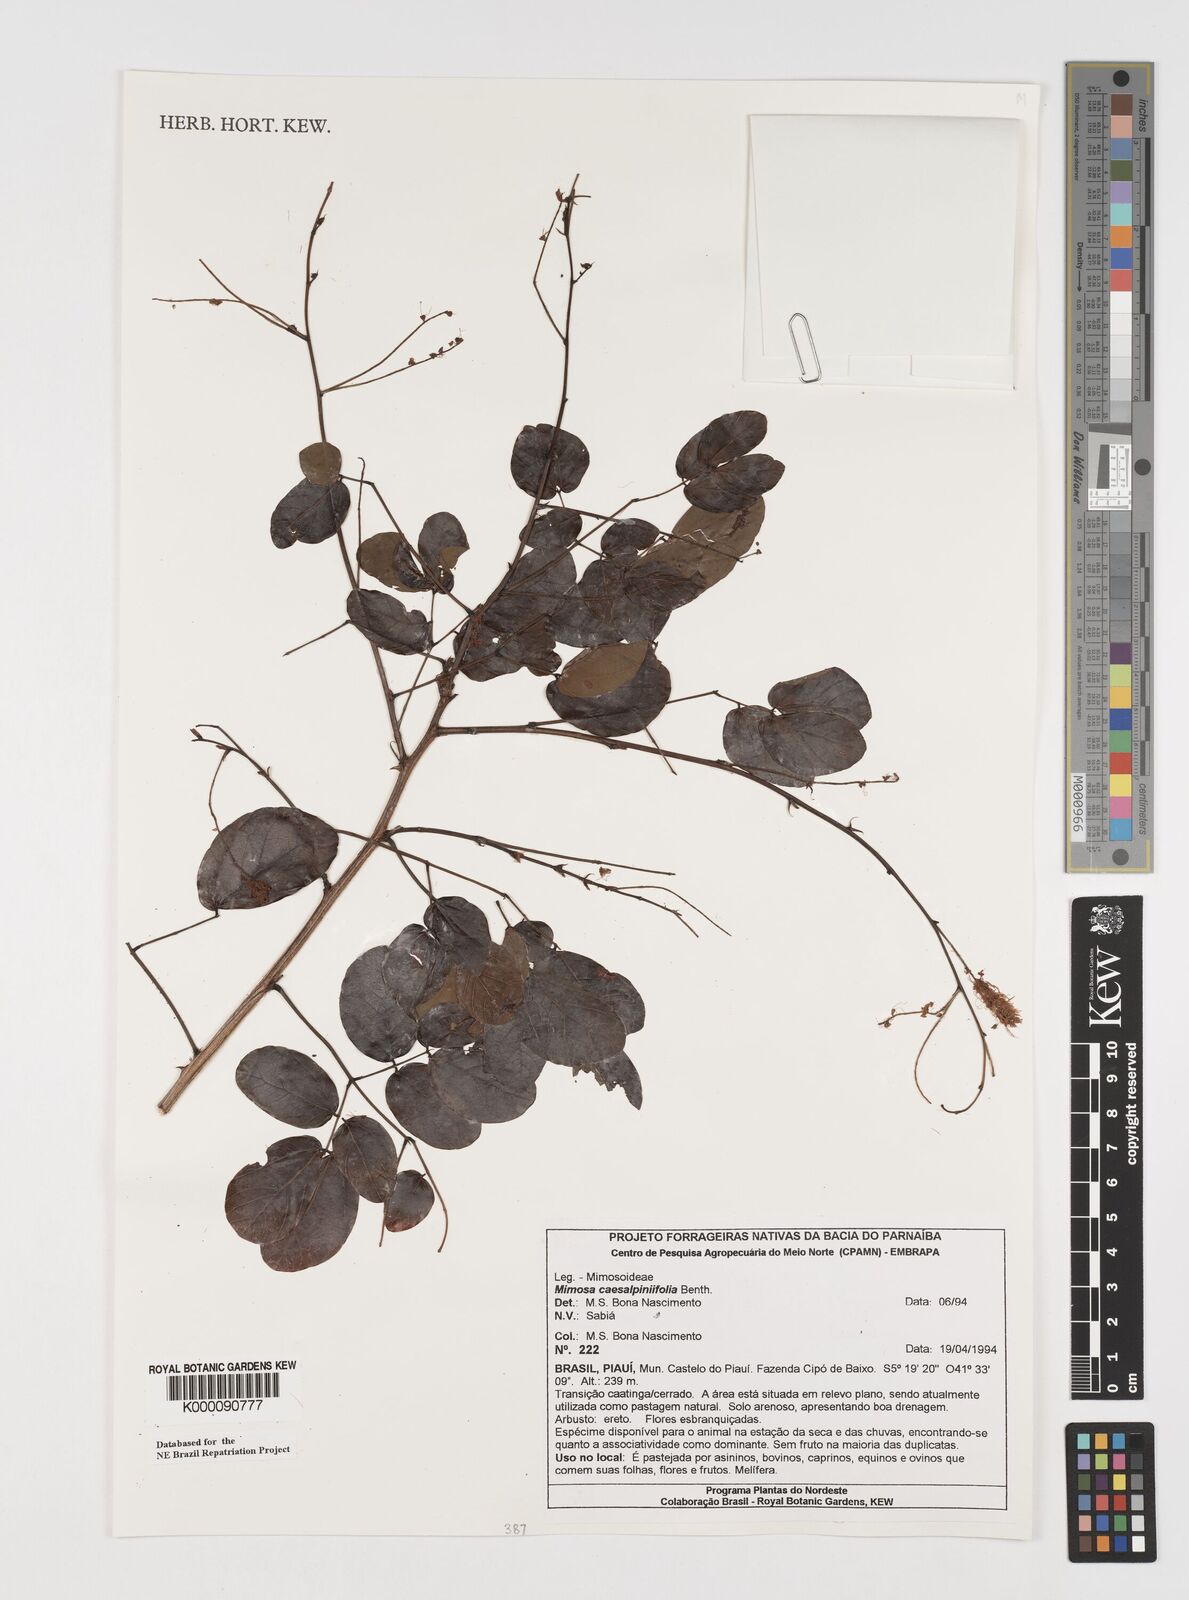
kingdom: Plantae
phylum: Tracheophyta
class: Magnoliopsida
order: Fabales
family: Fabaceae
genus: Mimosa
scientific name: Mimosa caesalpiniifolia
